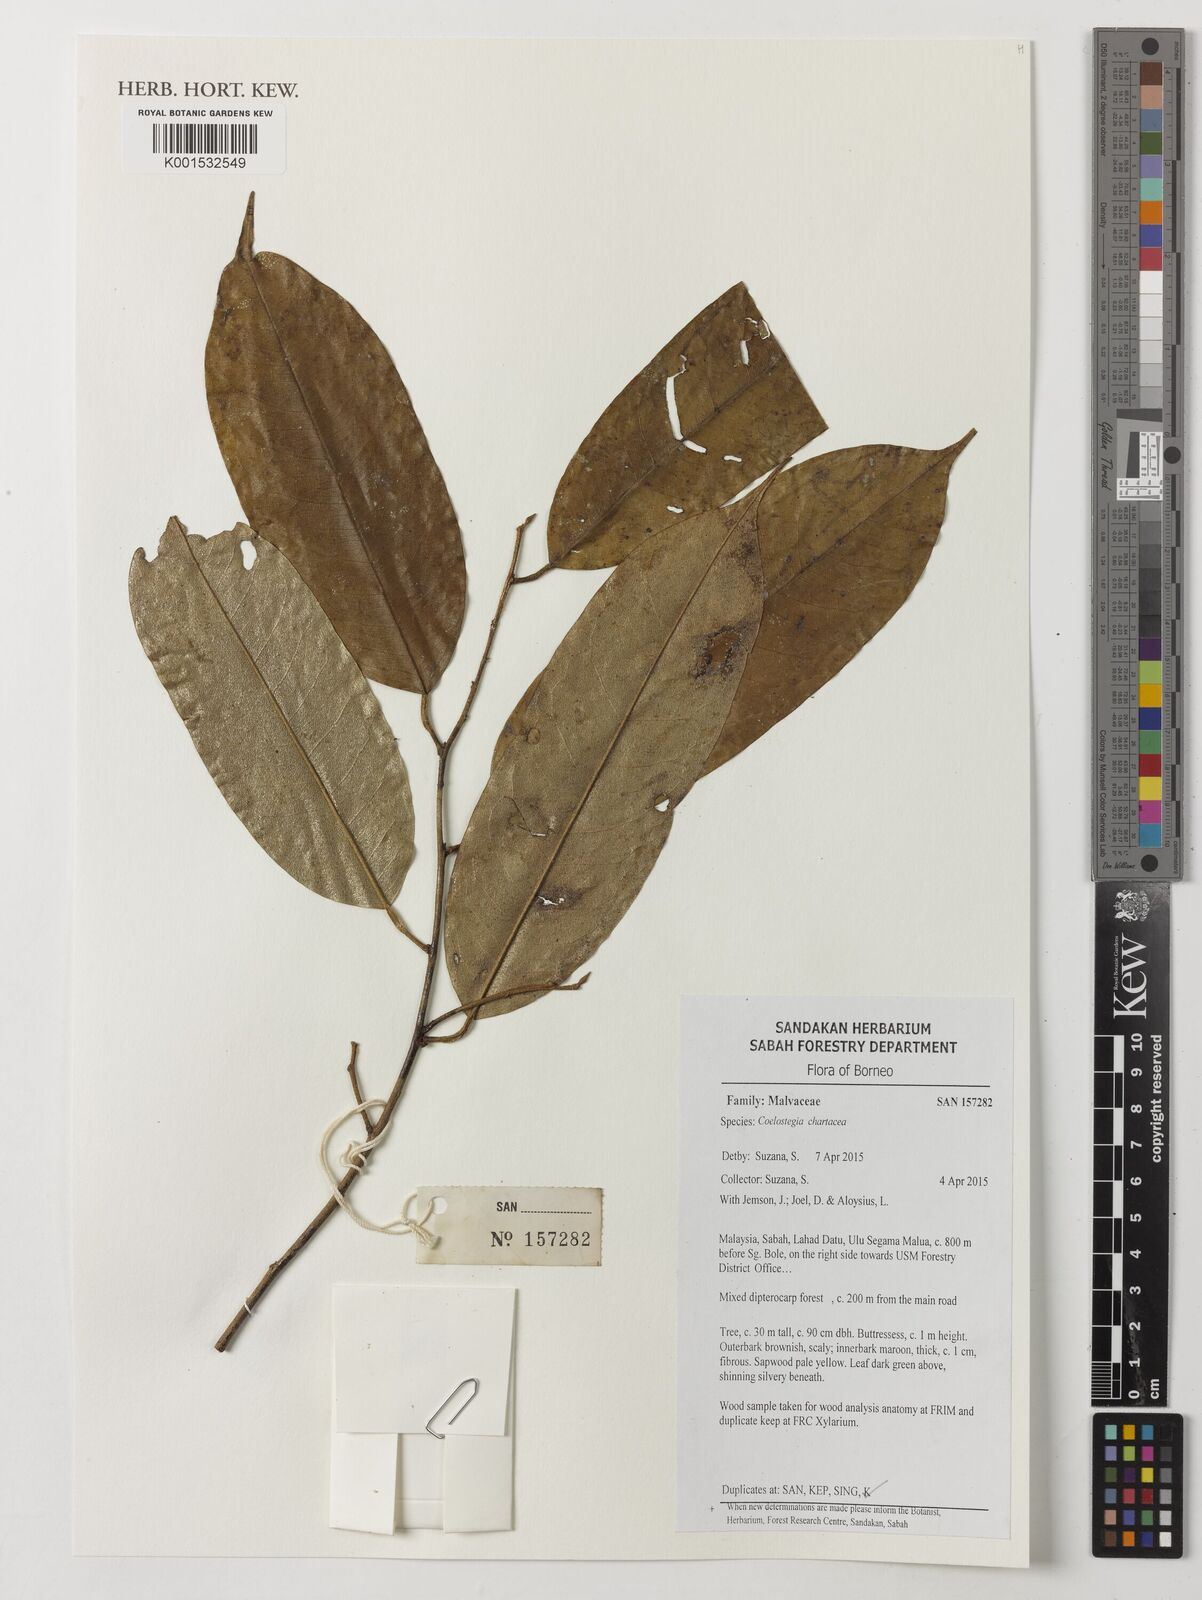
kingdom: Plantae
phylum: Tracheophyta
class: Magnoliopsida
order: Malvales
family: Malvaceae
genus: Coelostegia
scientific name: Coelostegia chartacea
